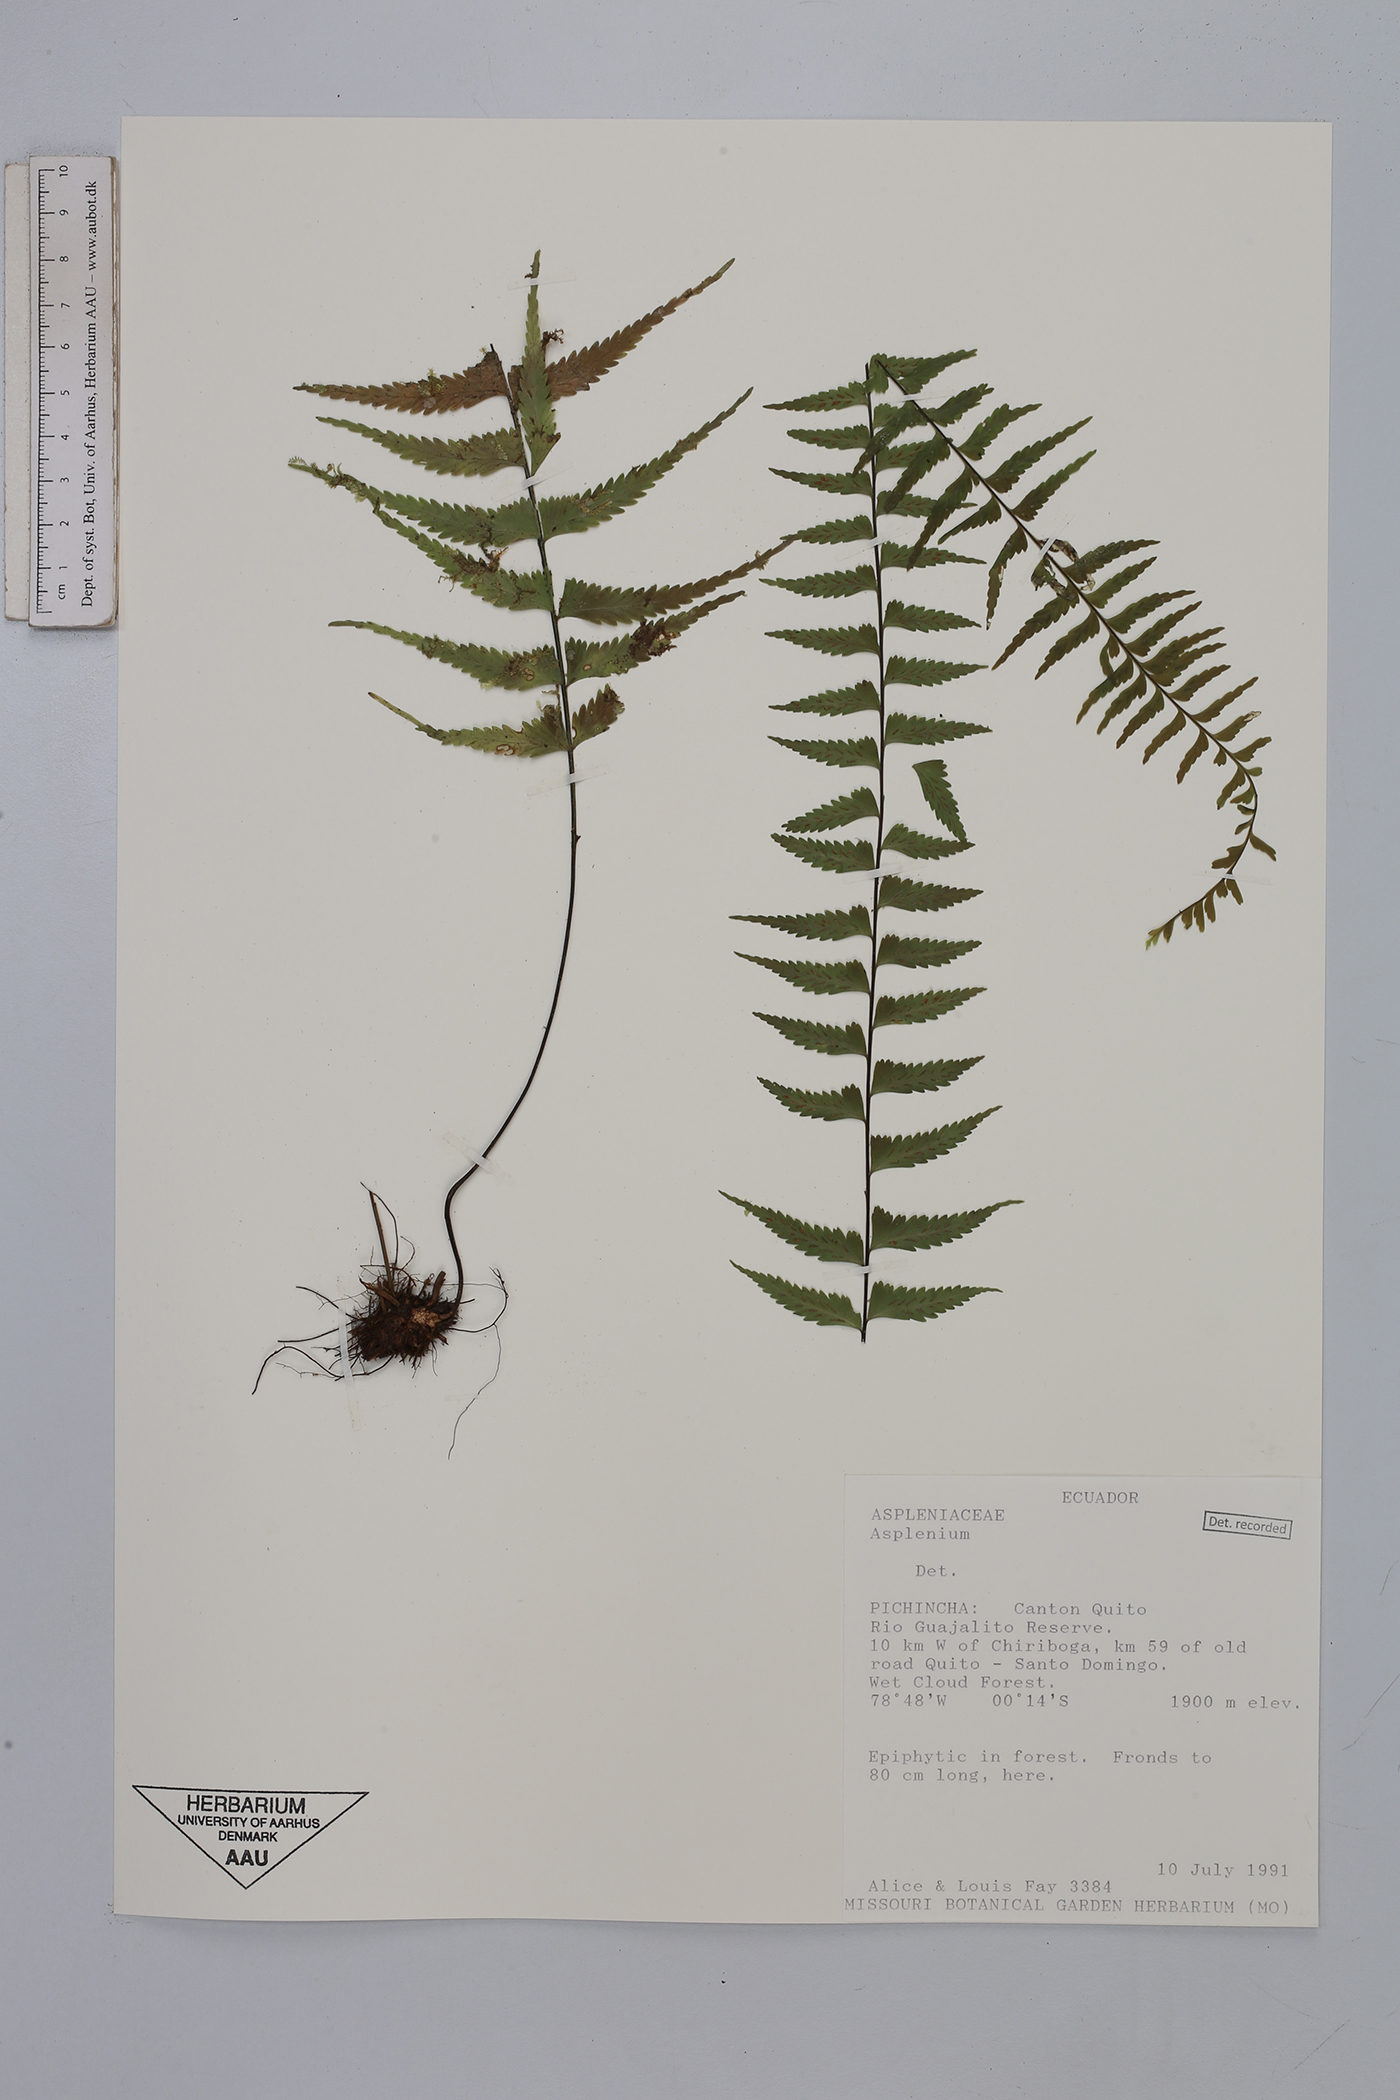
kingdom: Plantae
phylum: Tracheophyta
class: Polypodiopsida
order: Polypodiales
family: Aspleniaceae
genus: Asplenium
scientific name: Asplenium harpeodes
